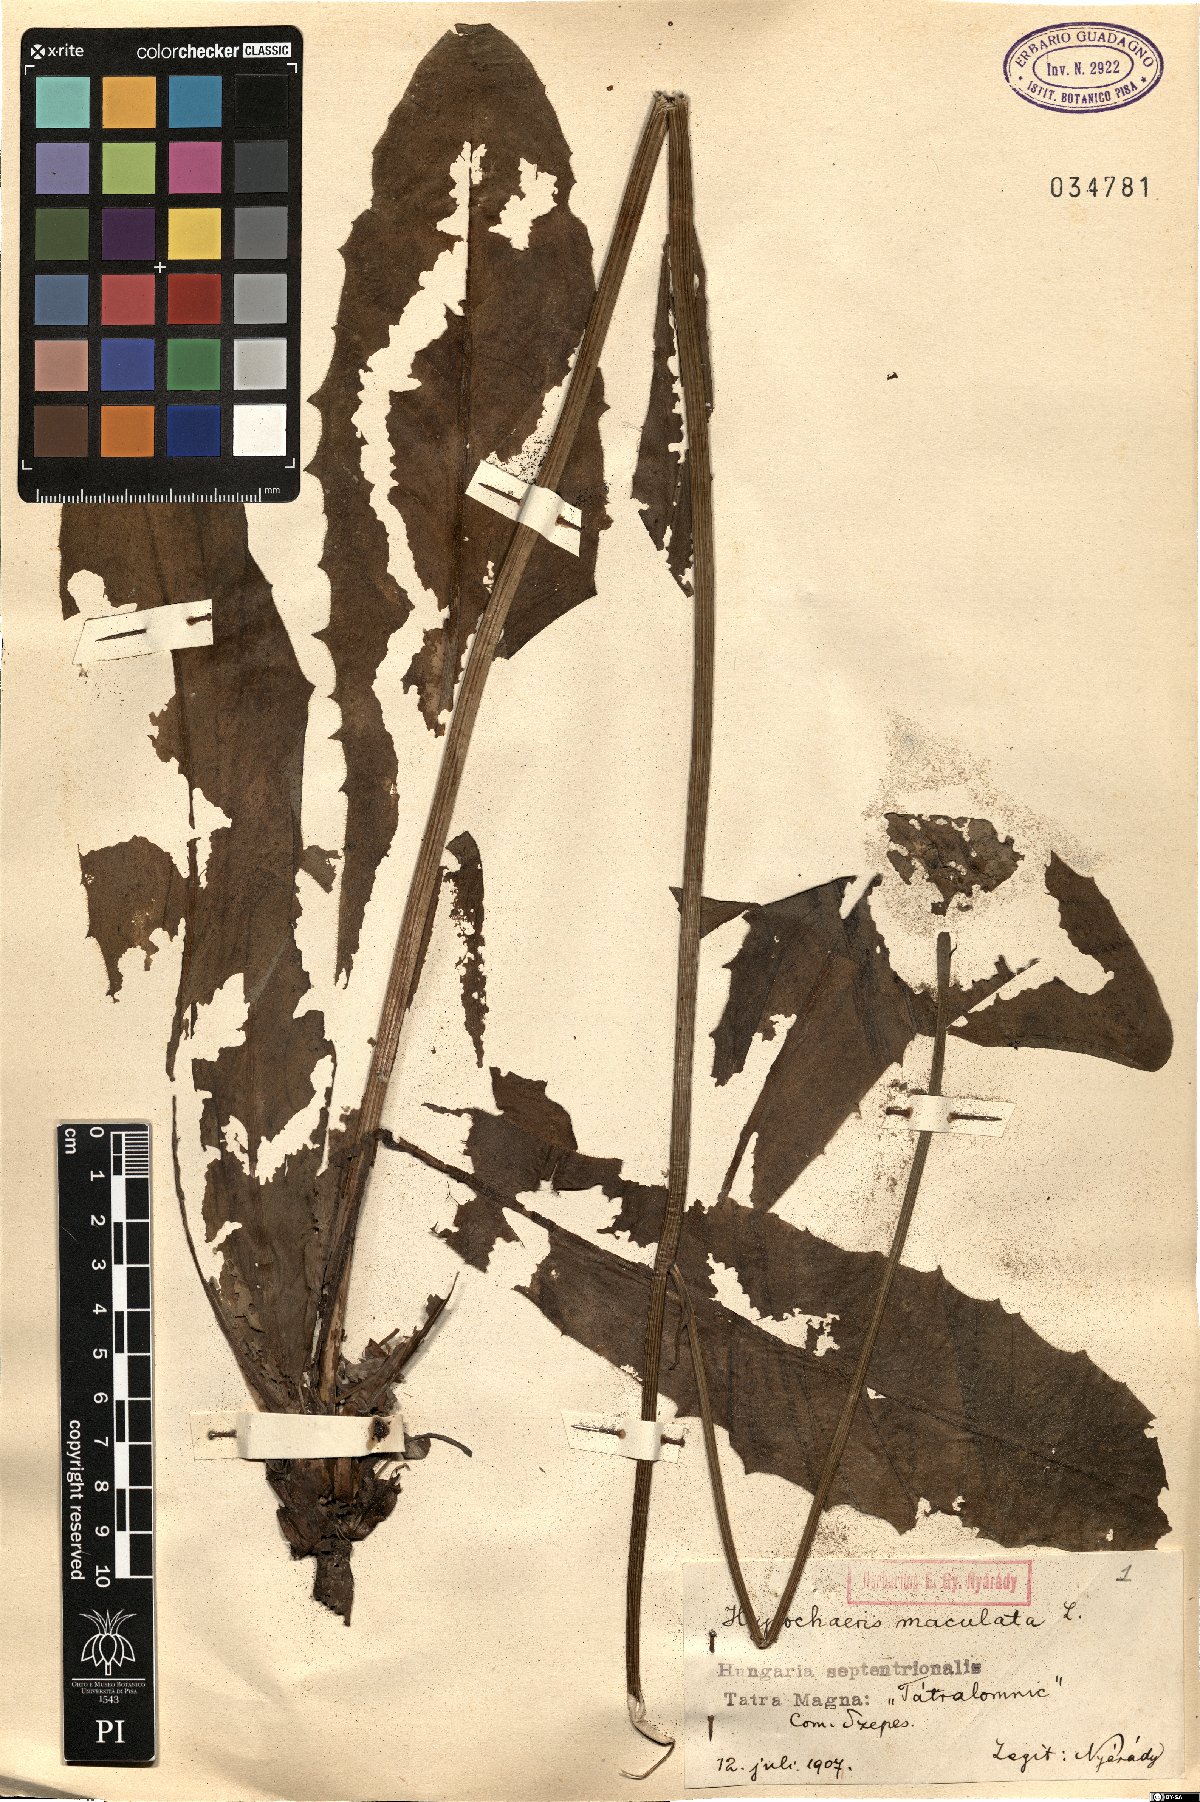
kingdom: Plantae
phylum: Tracheophyta
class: Magnoliopsida
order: Asterales
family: Asteraceae
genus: Trommsdorffia
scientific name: Trommsdorffia maculata
